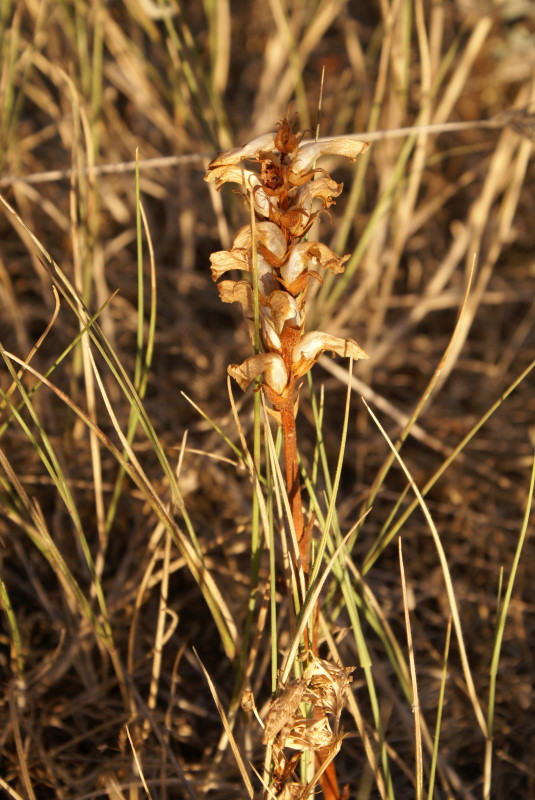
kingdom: Plantae
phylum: Tracheophyta
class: Magnoliopsida
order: Lamiales
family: Scrophulariaceae
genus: Orabanche
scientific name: Orabanche
